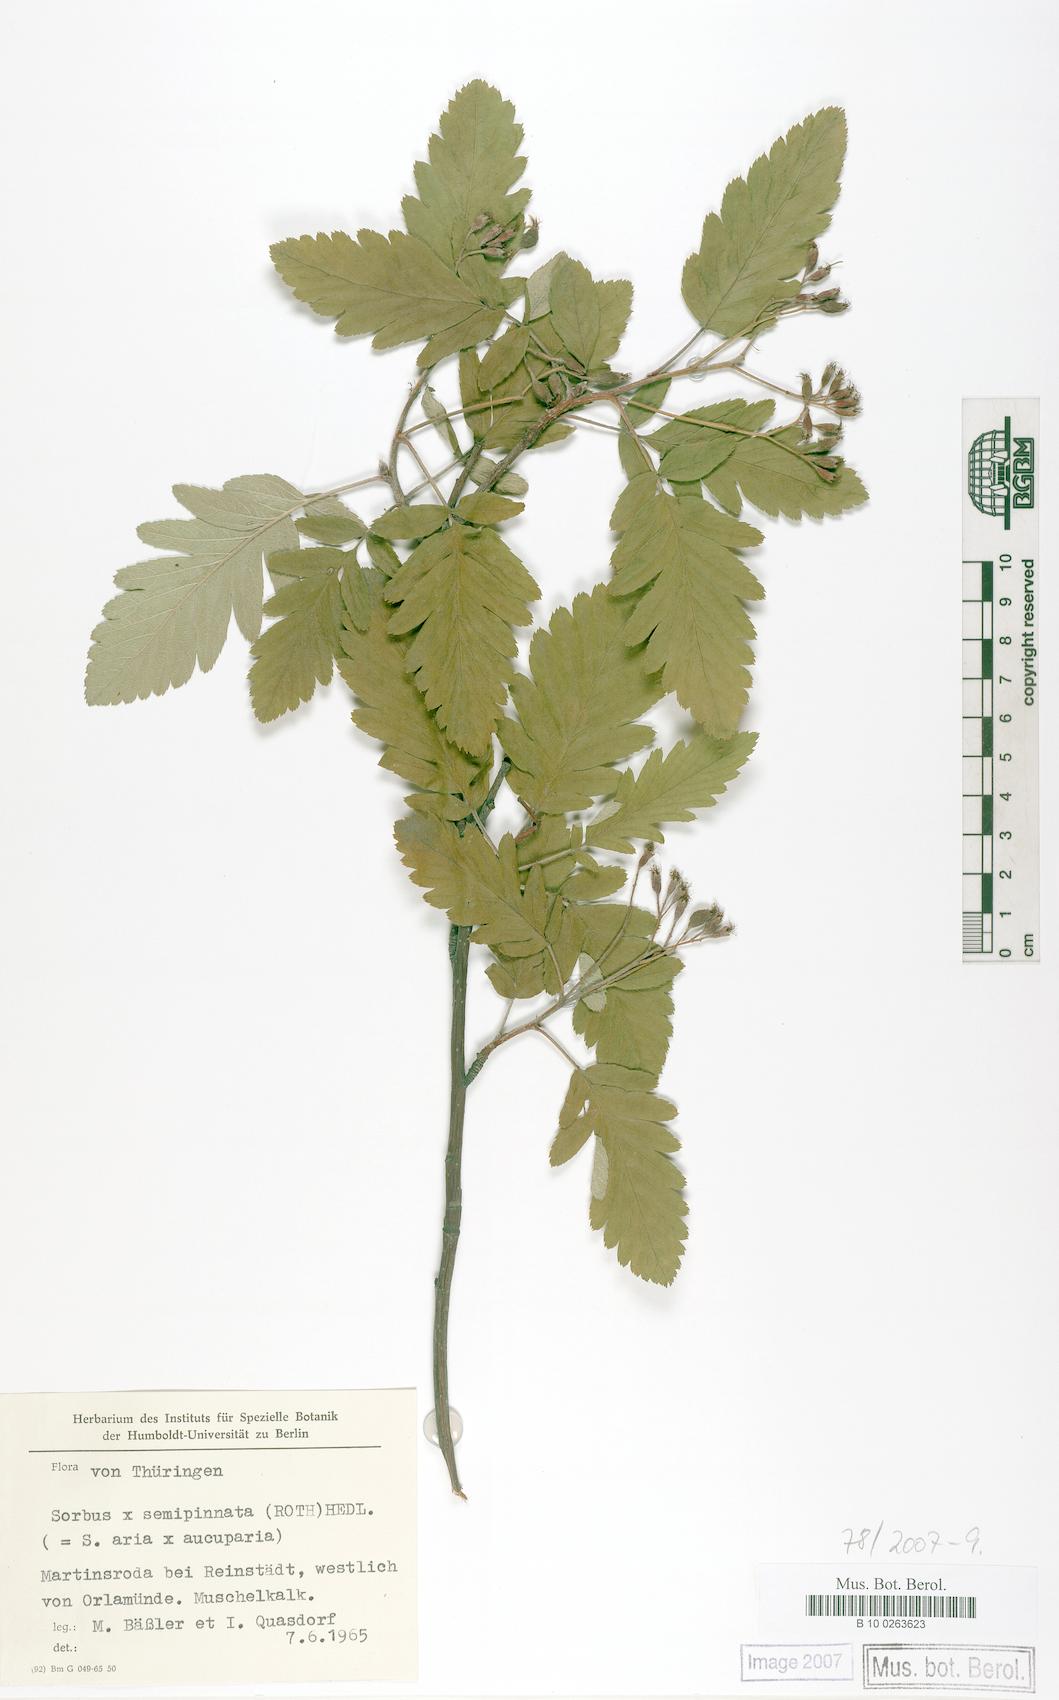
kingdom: Plantae
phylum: Tracheophyta
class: Magnoliopsida
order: Rosales
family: Rosaceae
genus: Hedlundia
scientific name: Hedlundia
